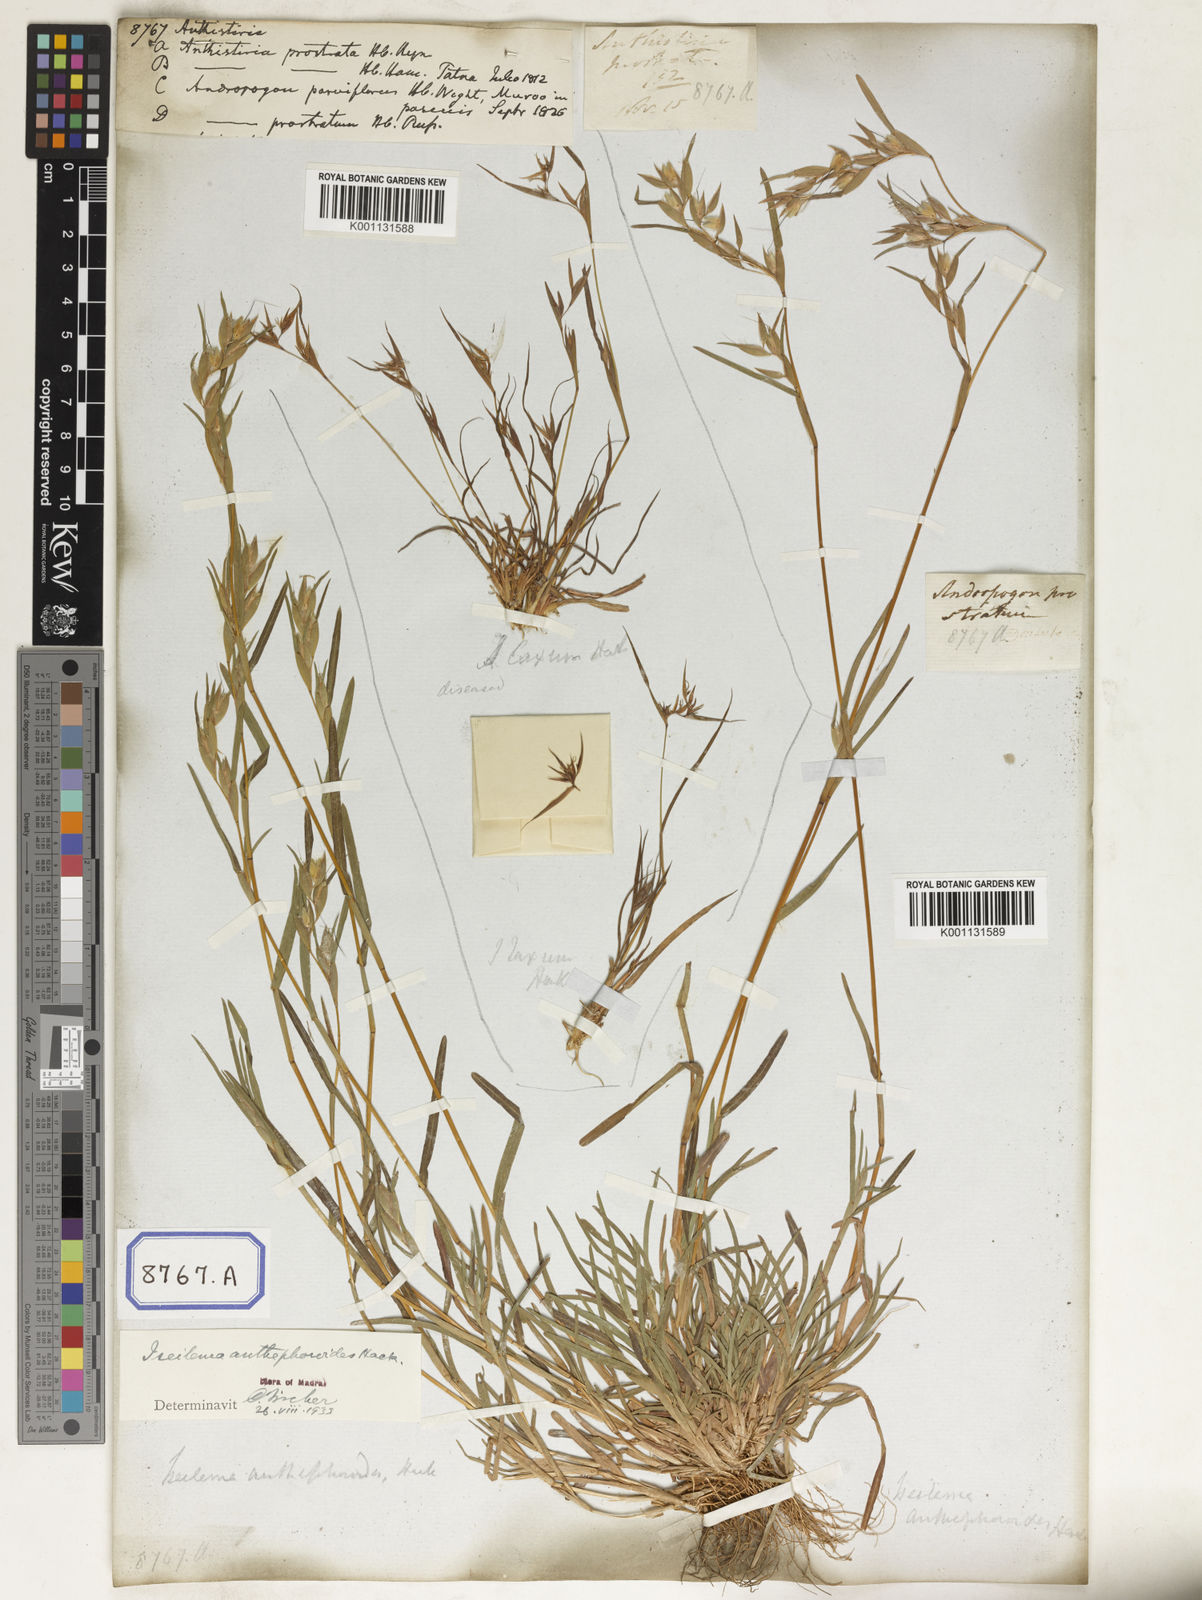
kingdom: Plantae
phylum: Tracheophyta
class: Liliopsida
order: Poales
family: Poaceae
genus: Themeda
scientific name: Themeda
